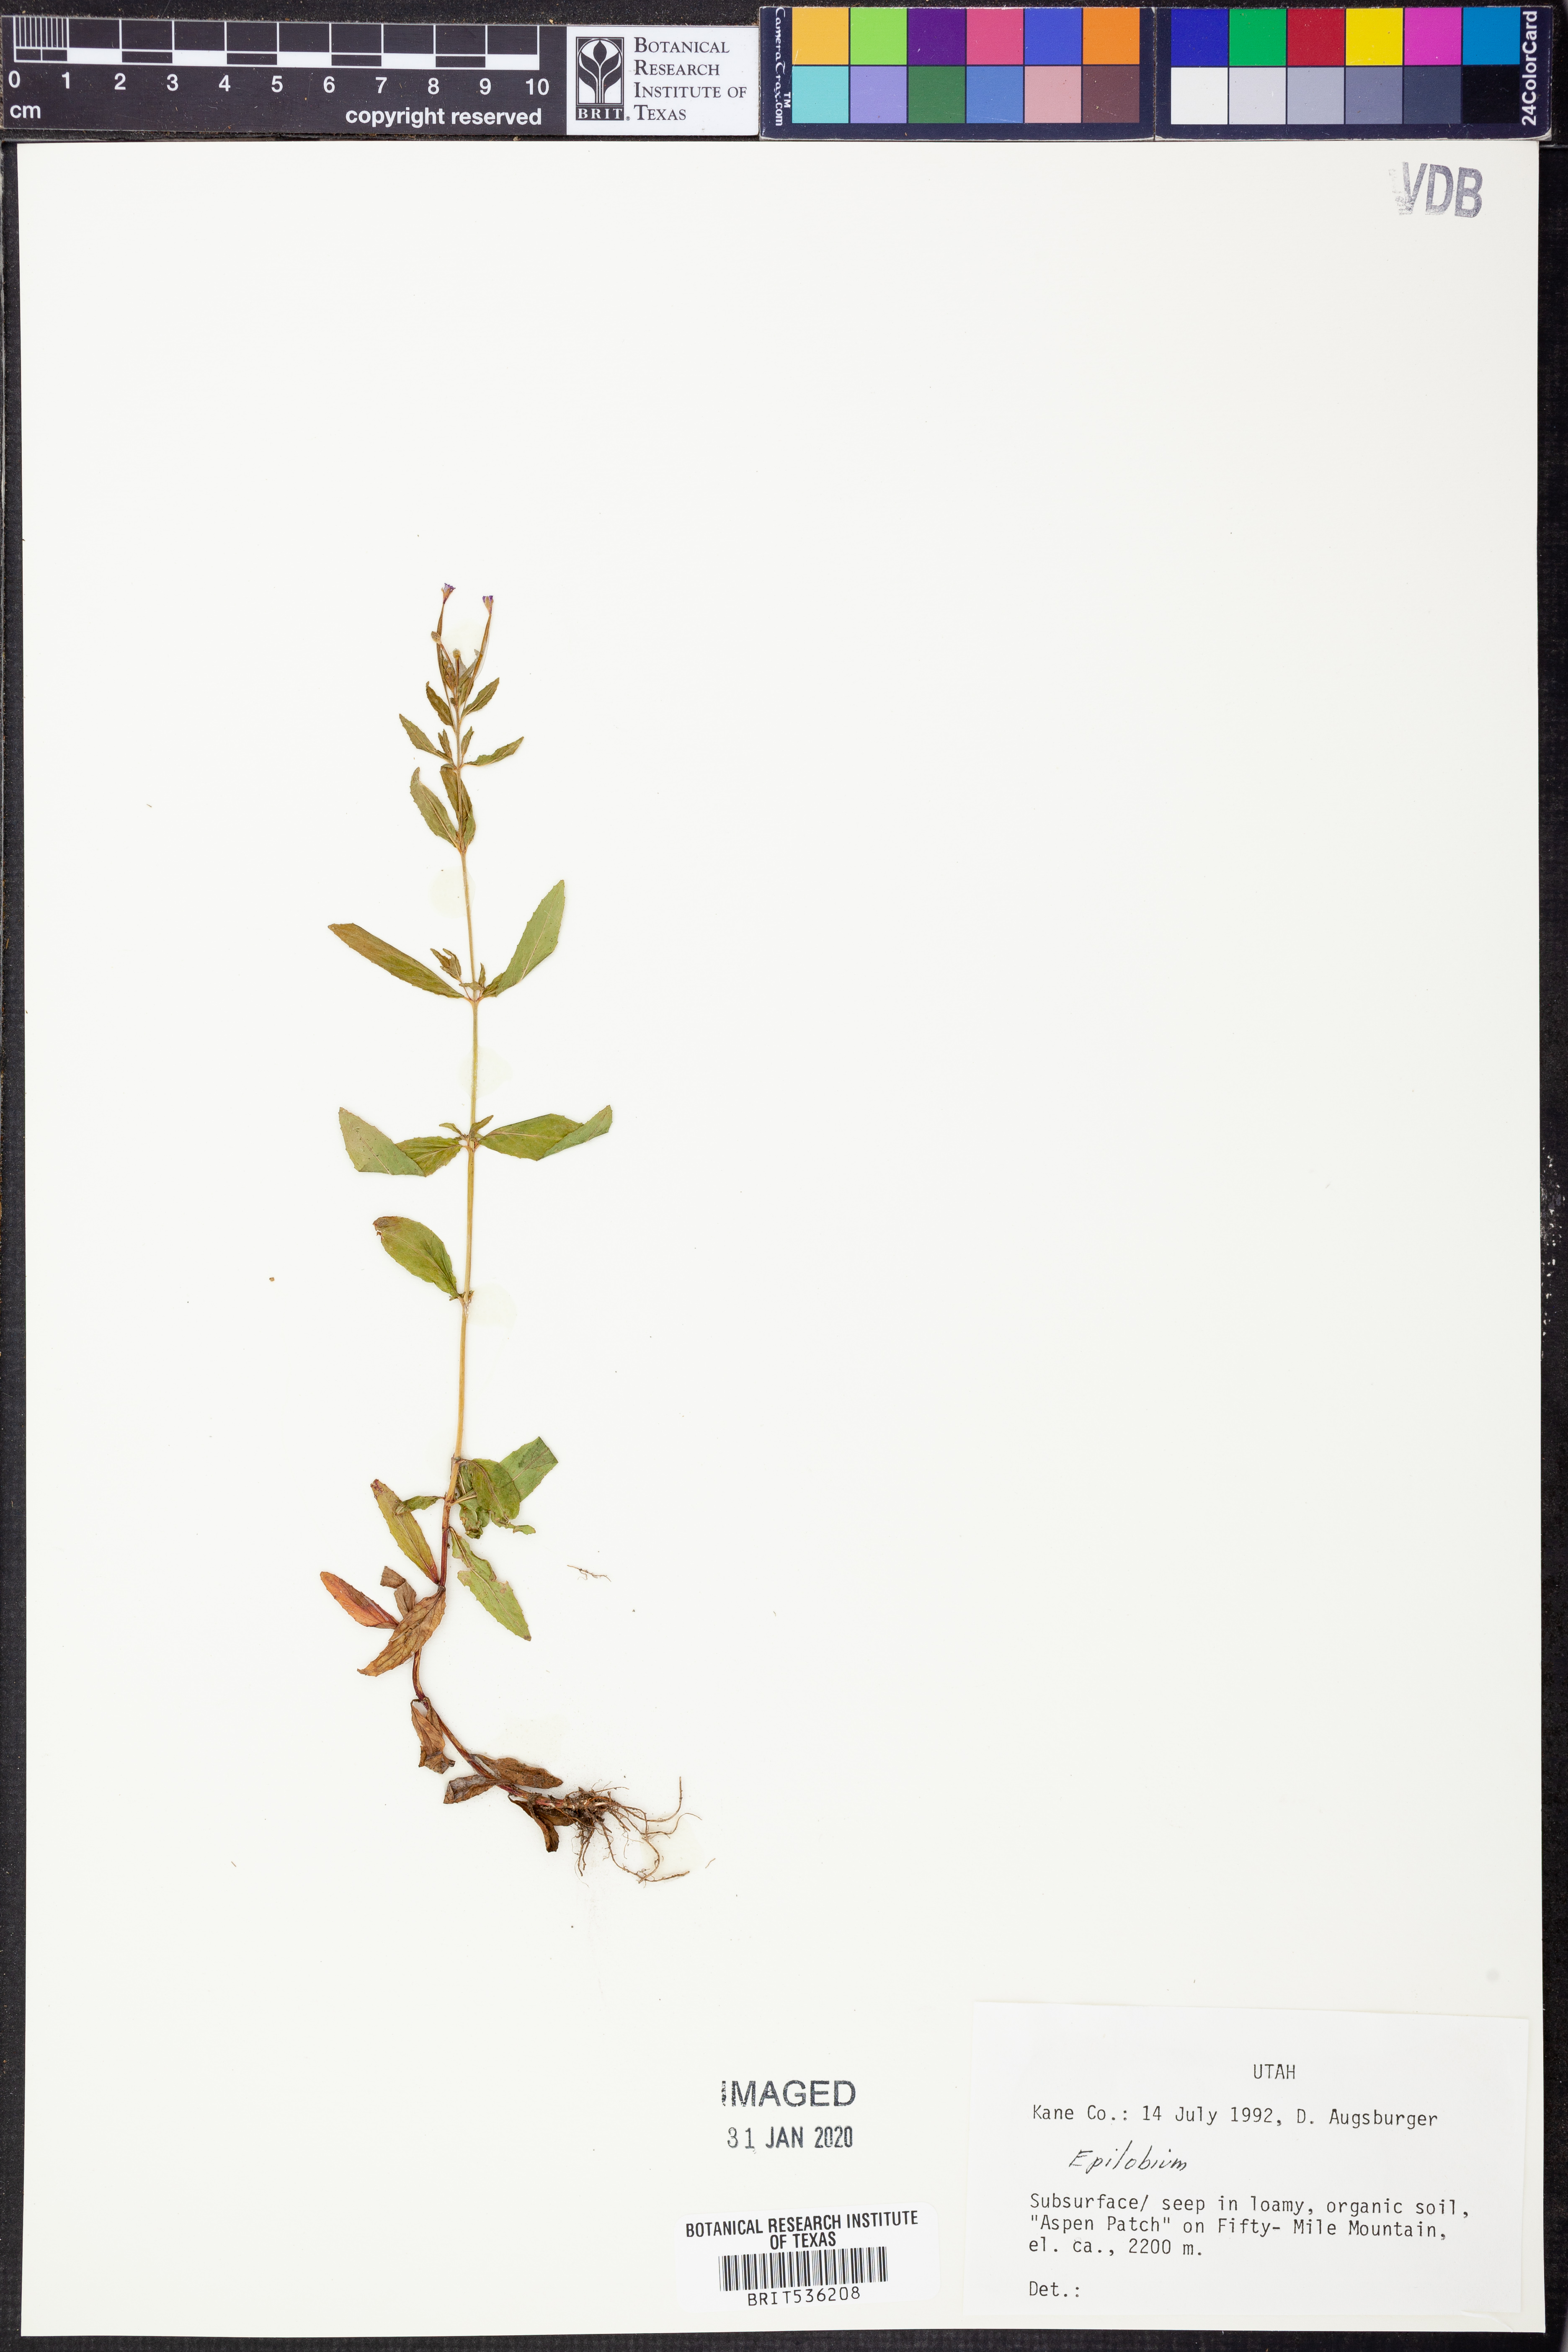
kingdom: Plantae
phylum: Tracheophyta
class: Magnoliopsida
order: Myrtales
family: Onagraceae
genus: Epilobium
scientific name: Epilobium
